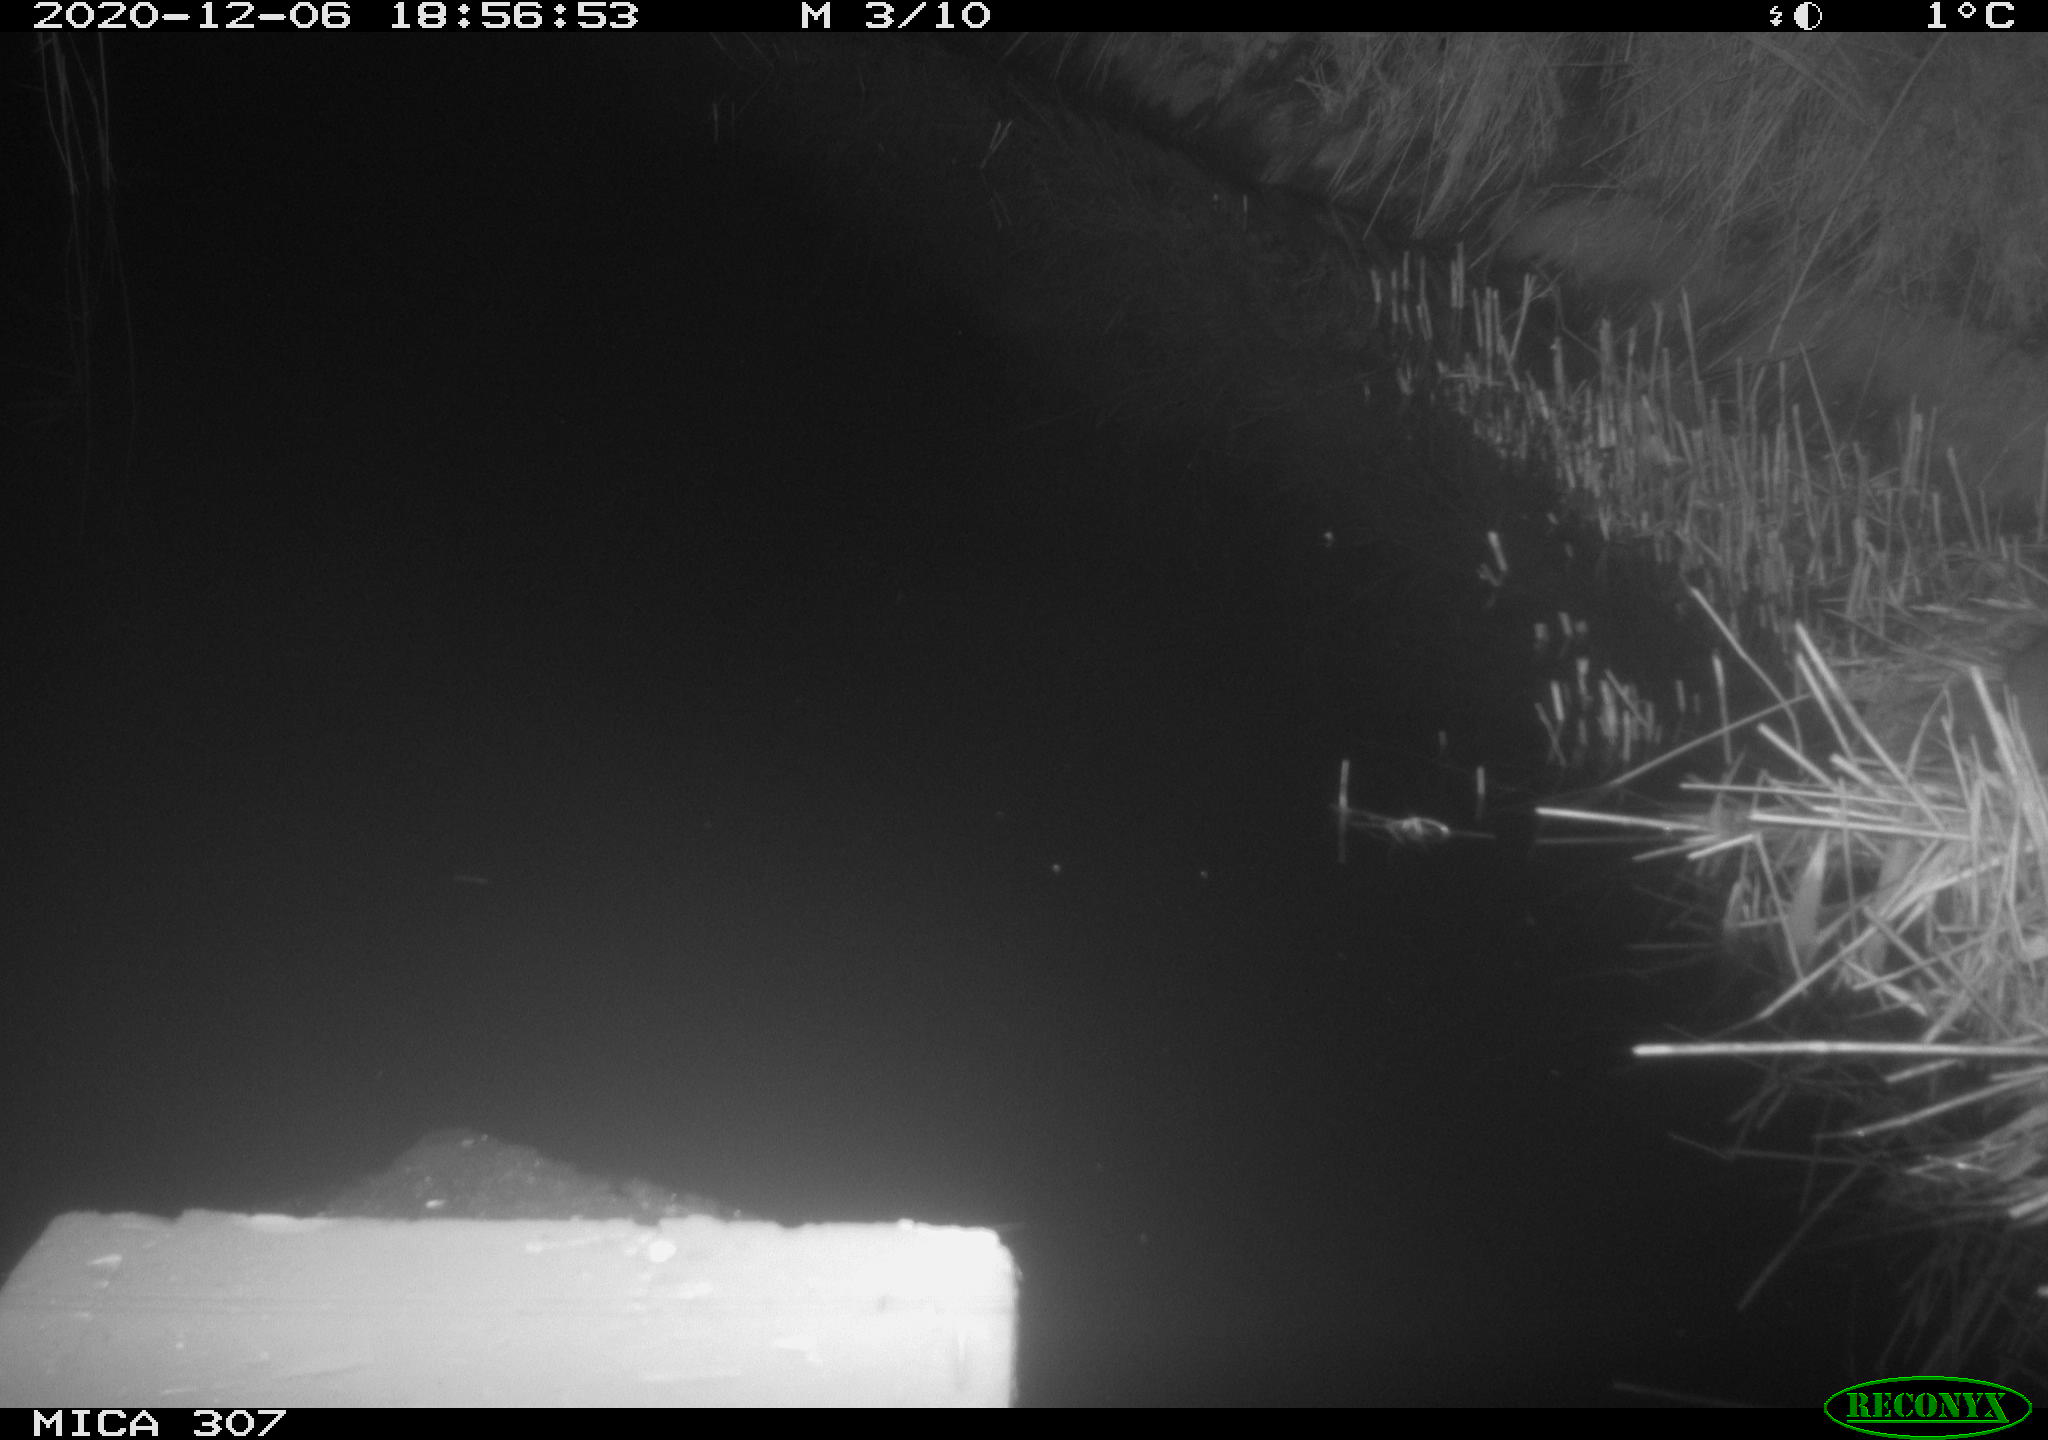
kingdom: Animalia
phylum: Chordata
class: Mammalia
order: Rodentia
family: Muridae
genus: Rattus
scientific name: Rattus norvegicus
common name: Brown rat
